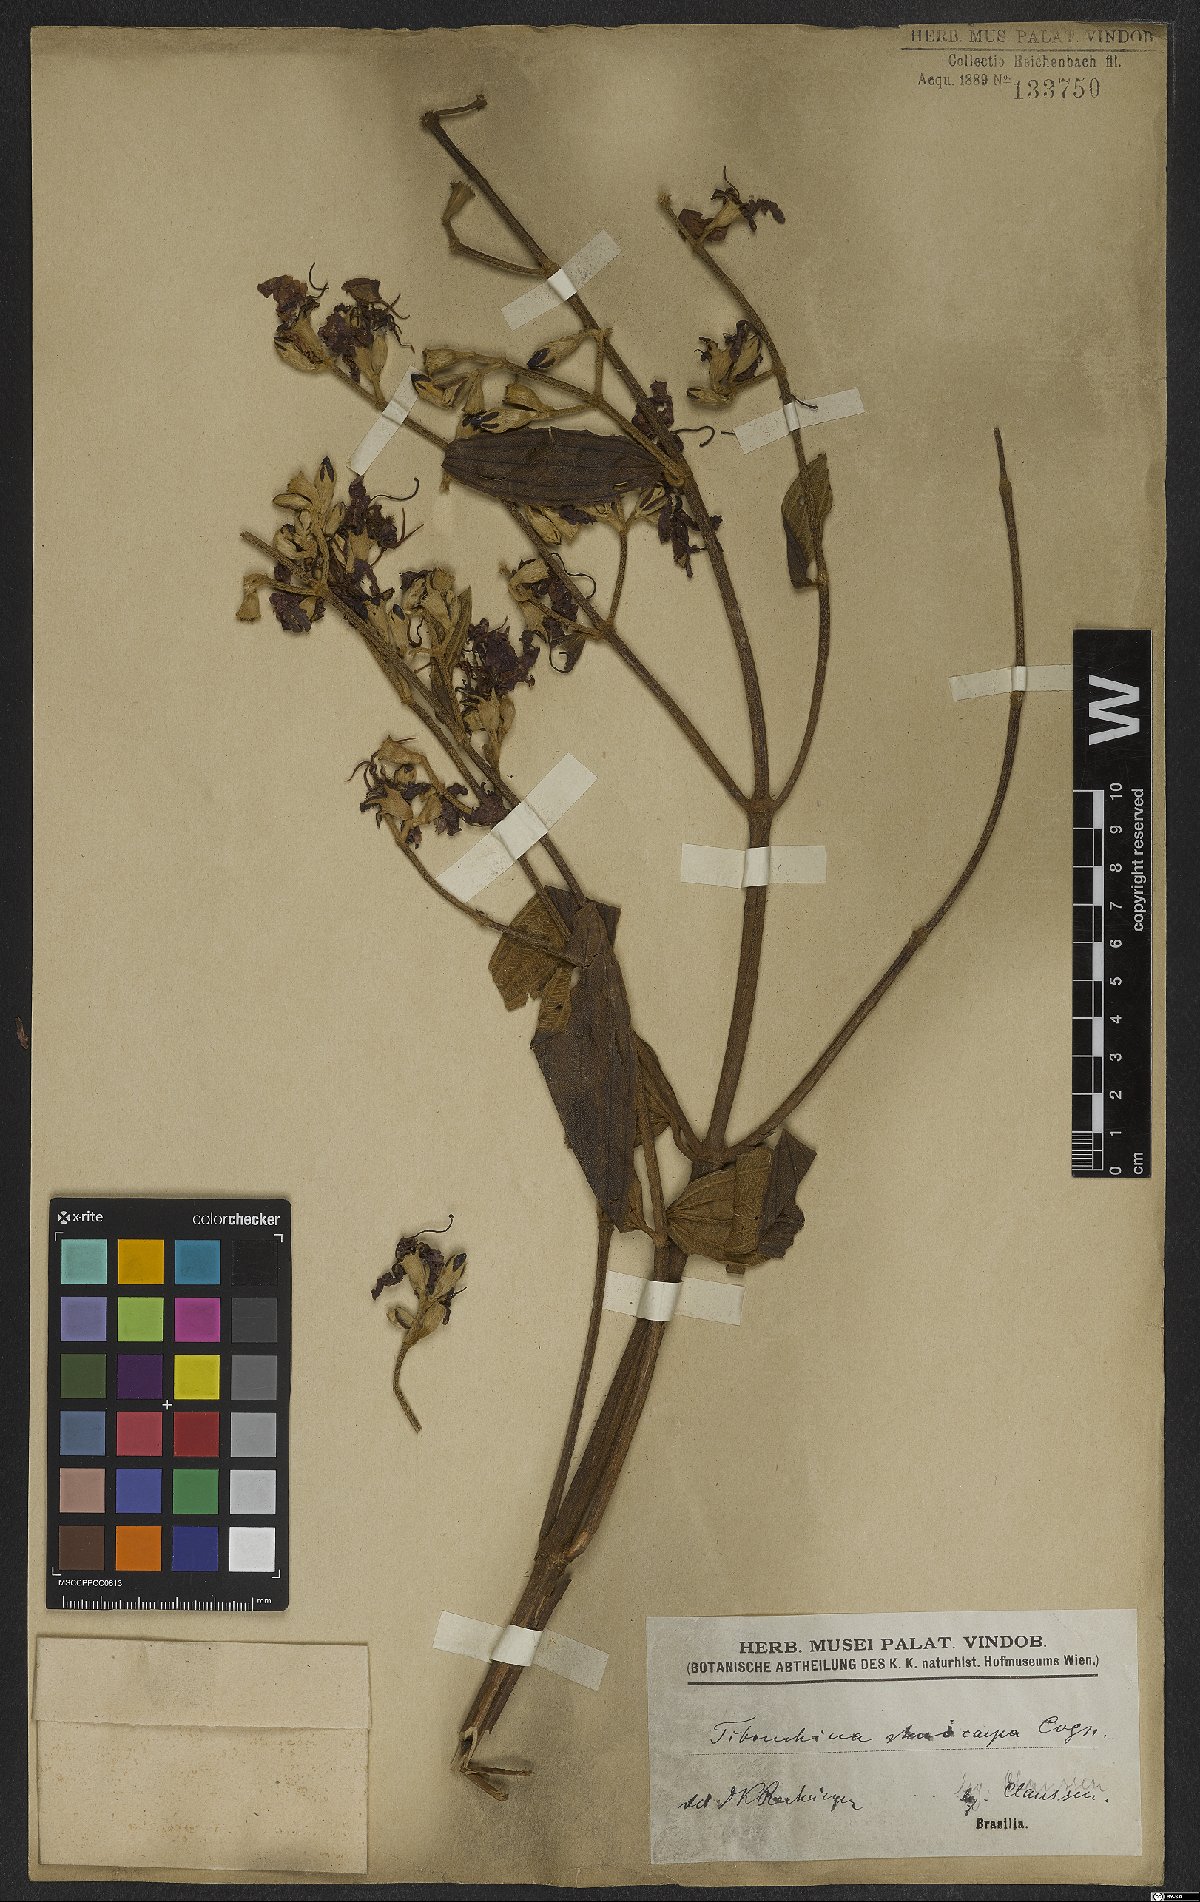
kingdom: Plantae
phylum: Tracheophyta
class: Magnoliopsida
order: Myrtales
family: Melastomataceae
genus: Pleroma
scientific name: Pleroma stenocarpum
